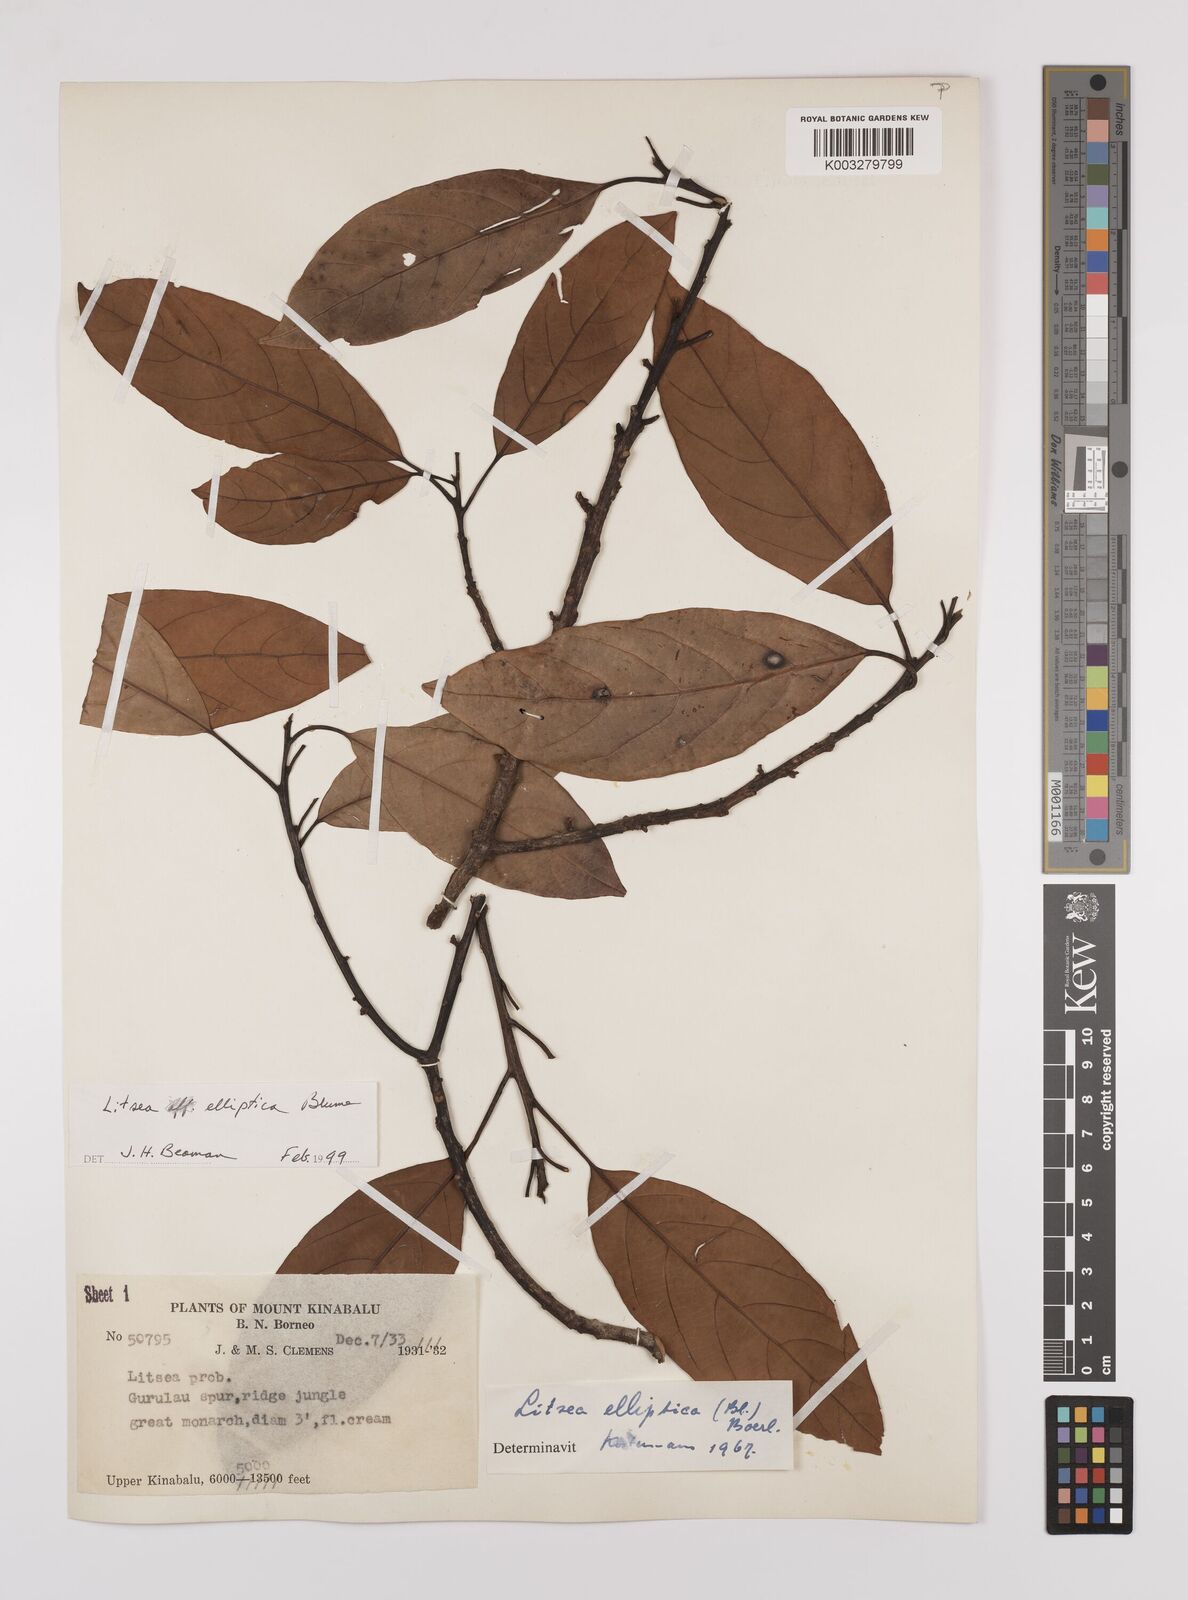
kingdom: Plantae
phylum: Tracheophyta
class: Magnoliopsida
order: Laurales
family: Lauraceae
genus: Litsea
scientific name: Litsea elliptica
